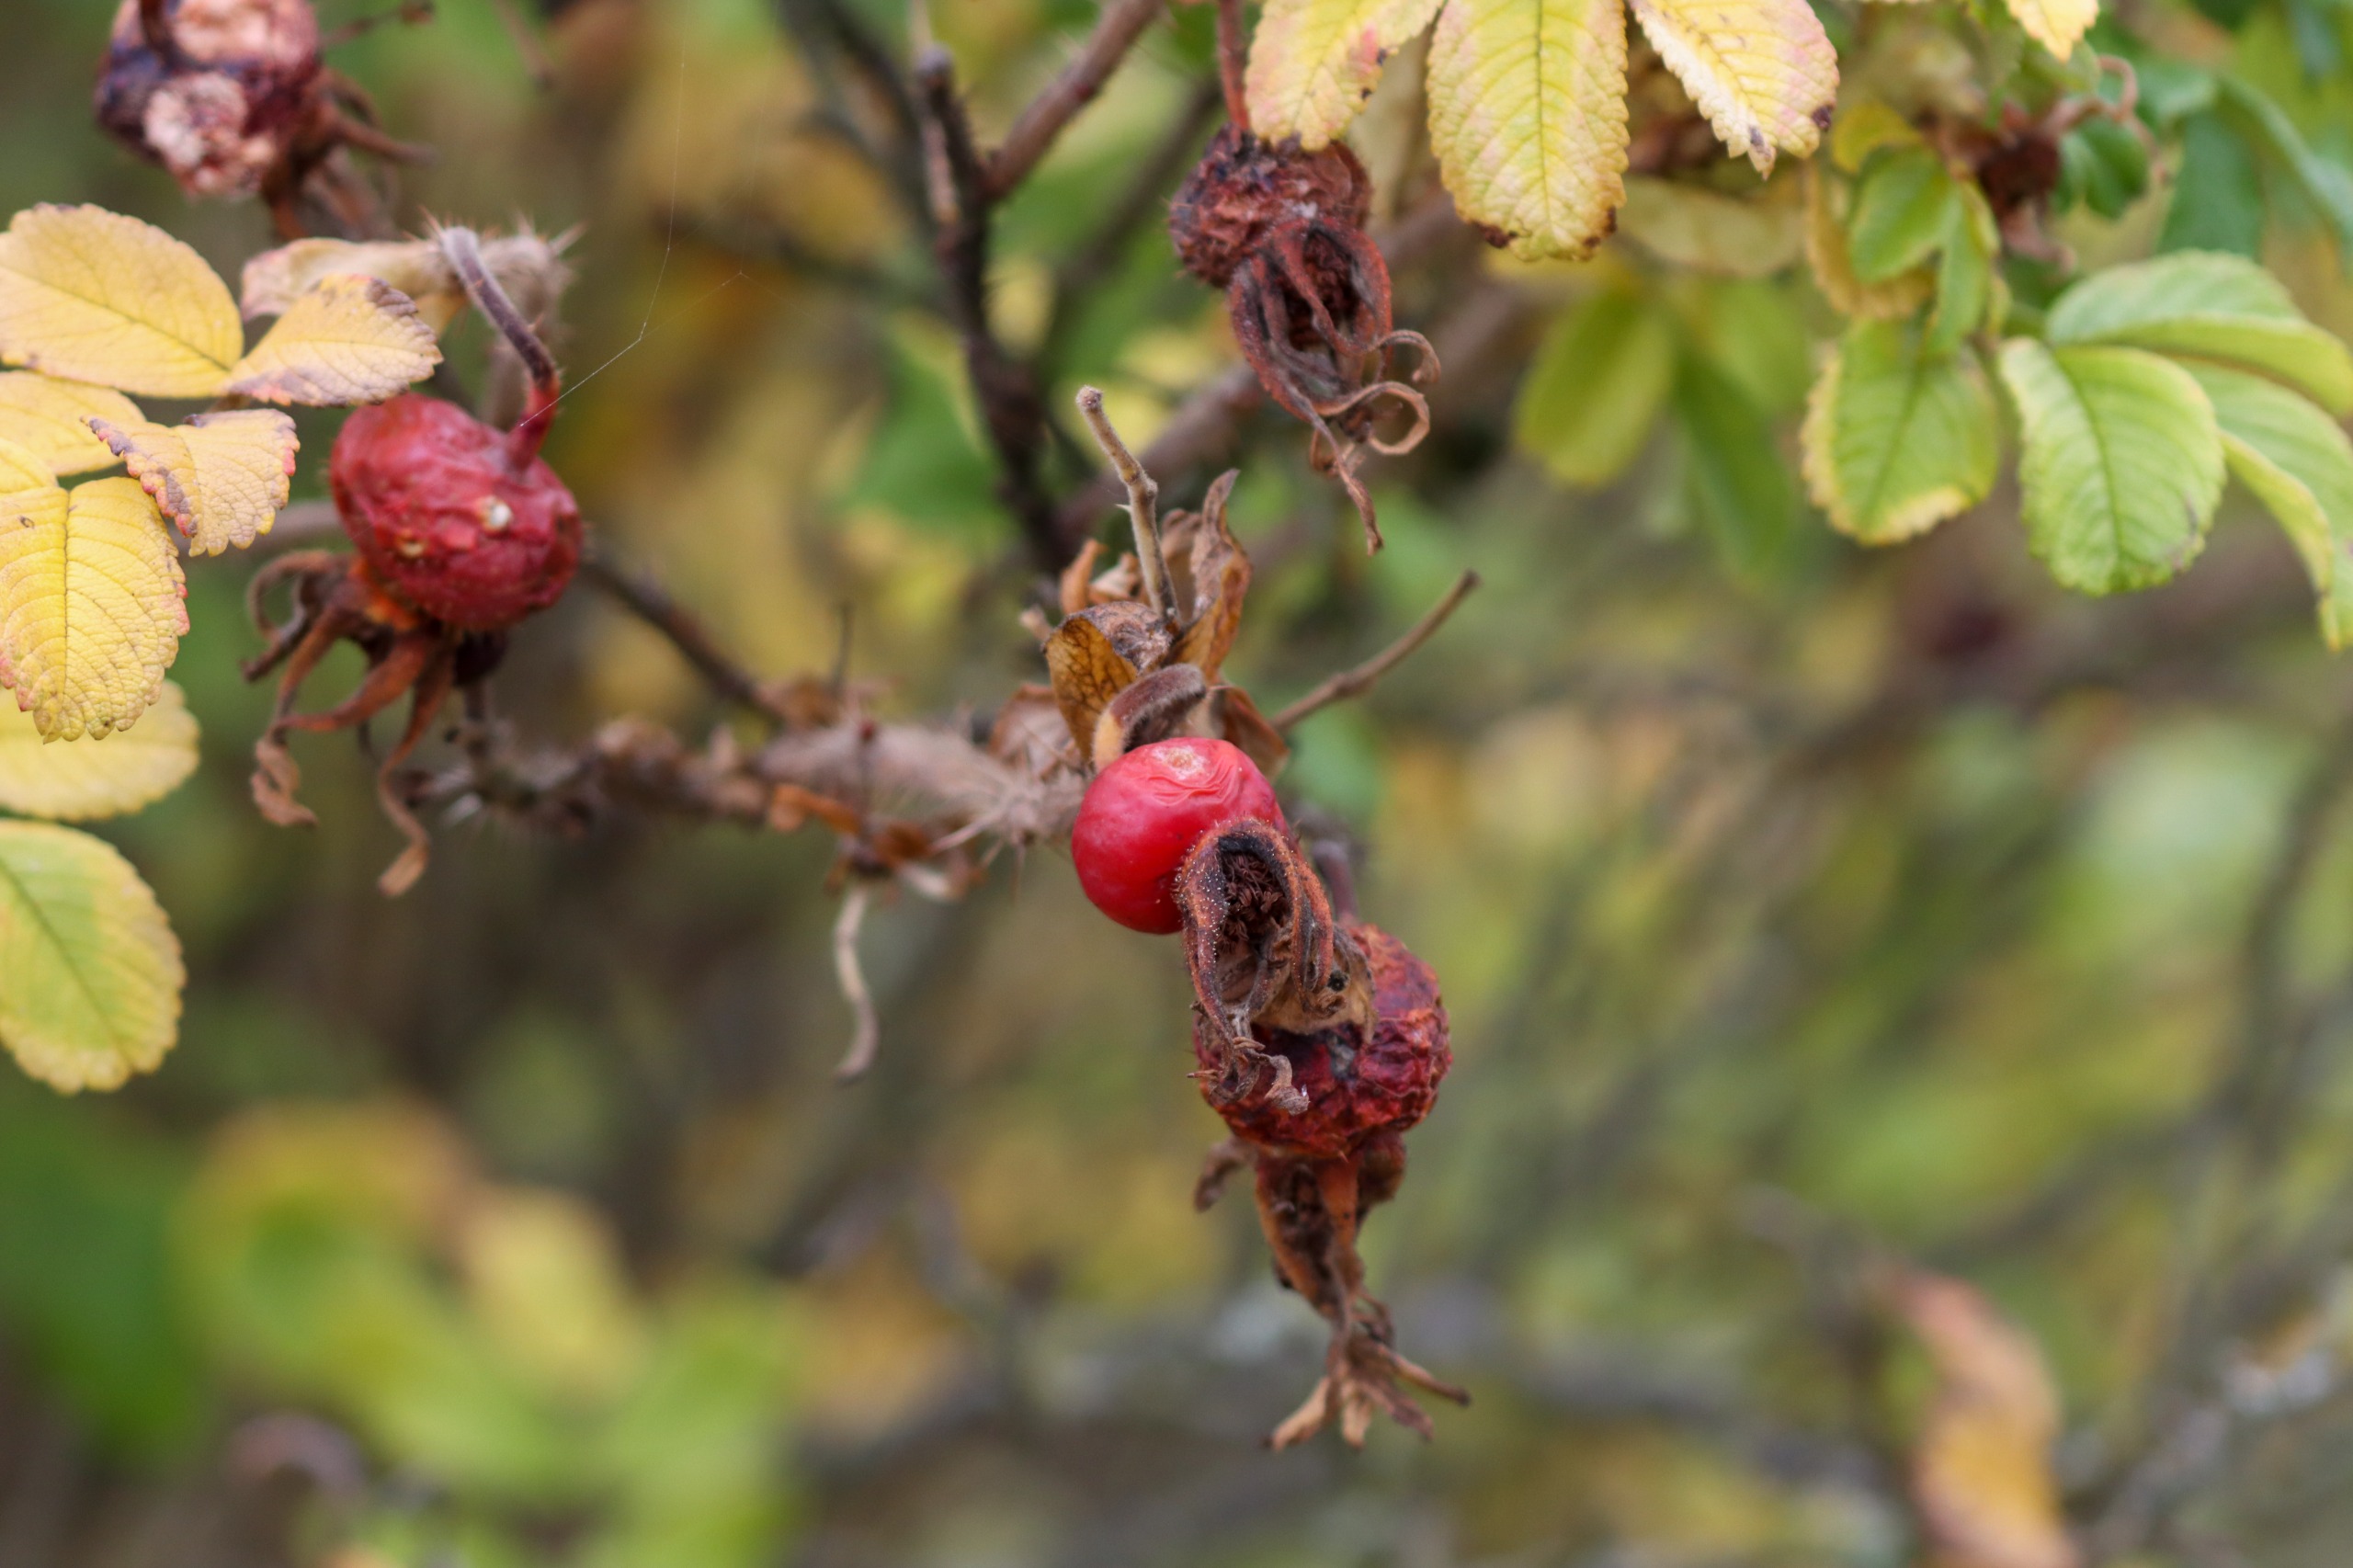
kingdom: Plantae
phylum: Tracheophyta
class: Magnoliopsida
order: Rosales
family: Rosaceae
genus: Rosa
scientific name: Rosa rugosa
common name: Rynket rose
